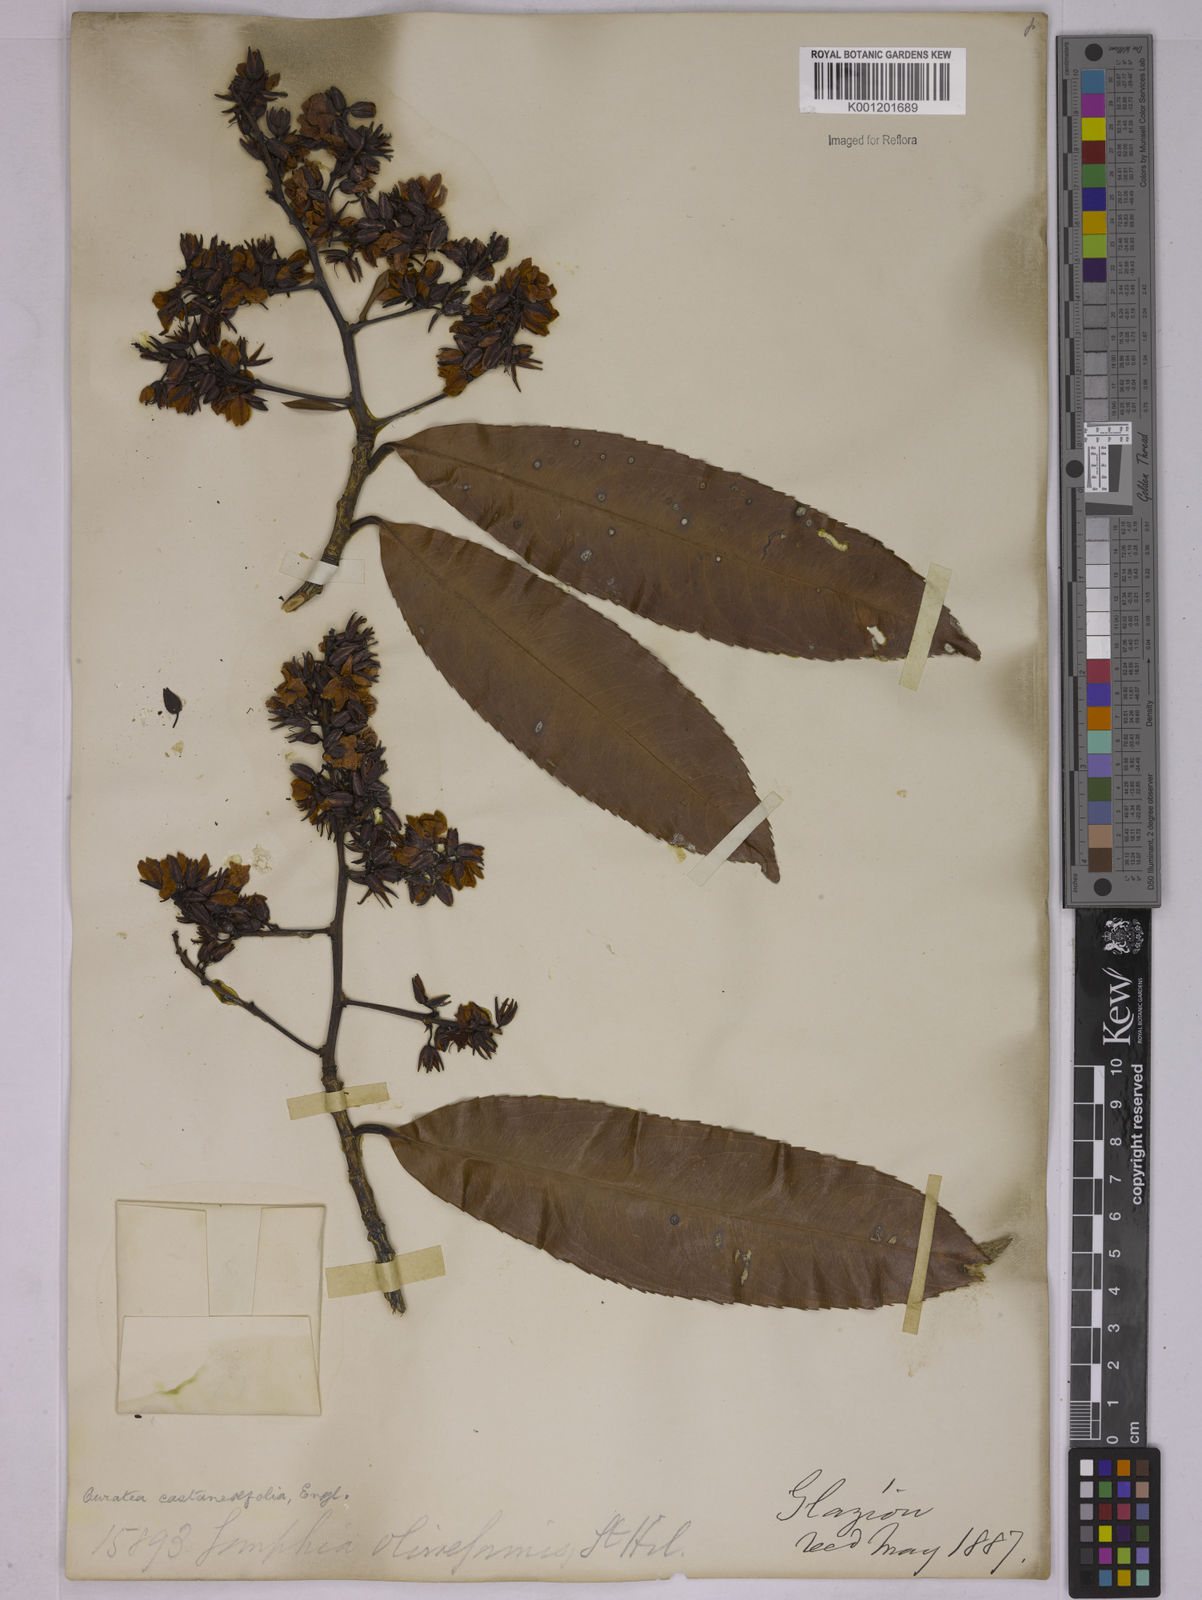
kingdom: Plantae
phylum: Tracheophyta
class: Magnoliopsida
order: Malpighiales
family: Ochnaceae
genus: Ouratea
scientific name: Ouratea castaneifolia
